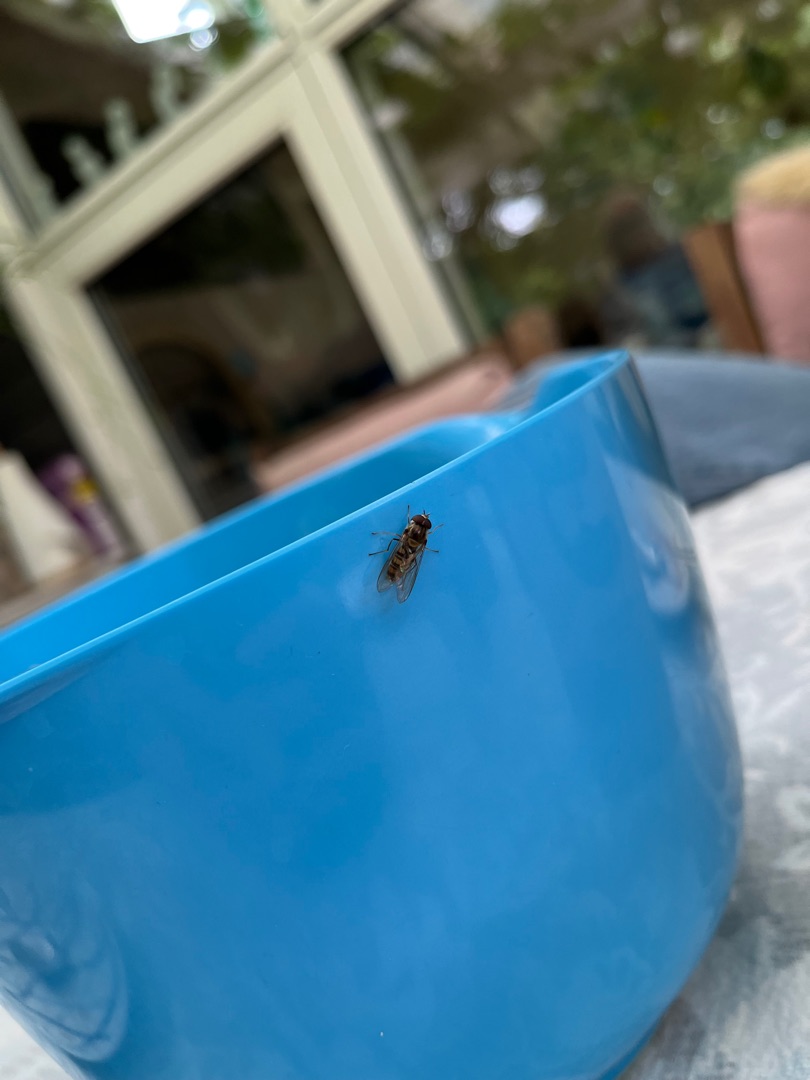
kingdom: Animalia
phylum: Arthropoda
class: Insecta
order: Diptera
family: Syrphidae
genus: Episyrphus
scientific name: Episyrphus balteatus
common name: Dobbeltbåndet svirreflue
